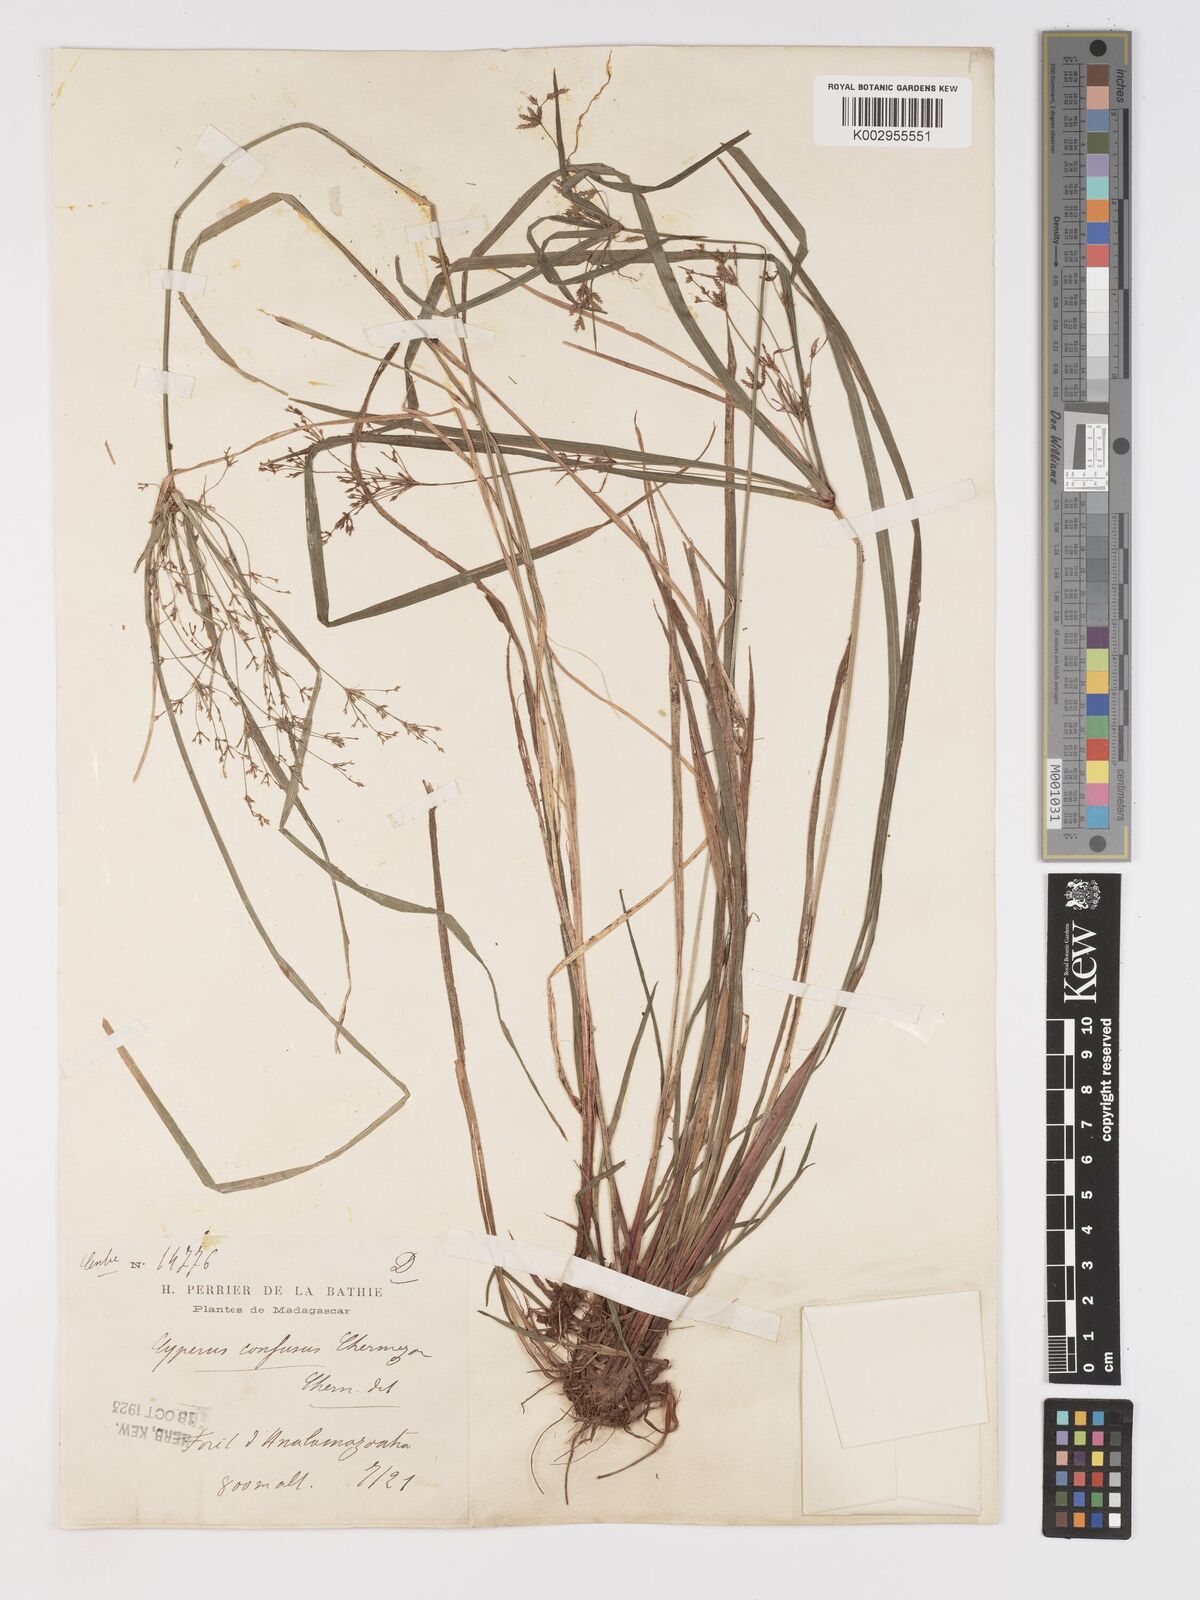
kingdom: Plantae
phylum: Tracheophyta
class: Liliopsida
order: Poales
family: Cyperaceae
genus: Cyperus
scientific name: Cyperus longifolius
